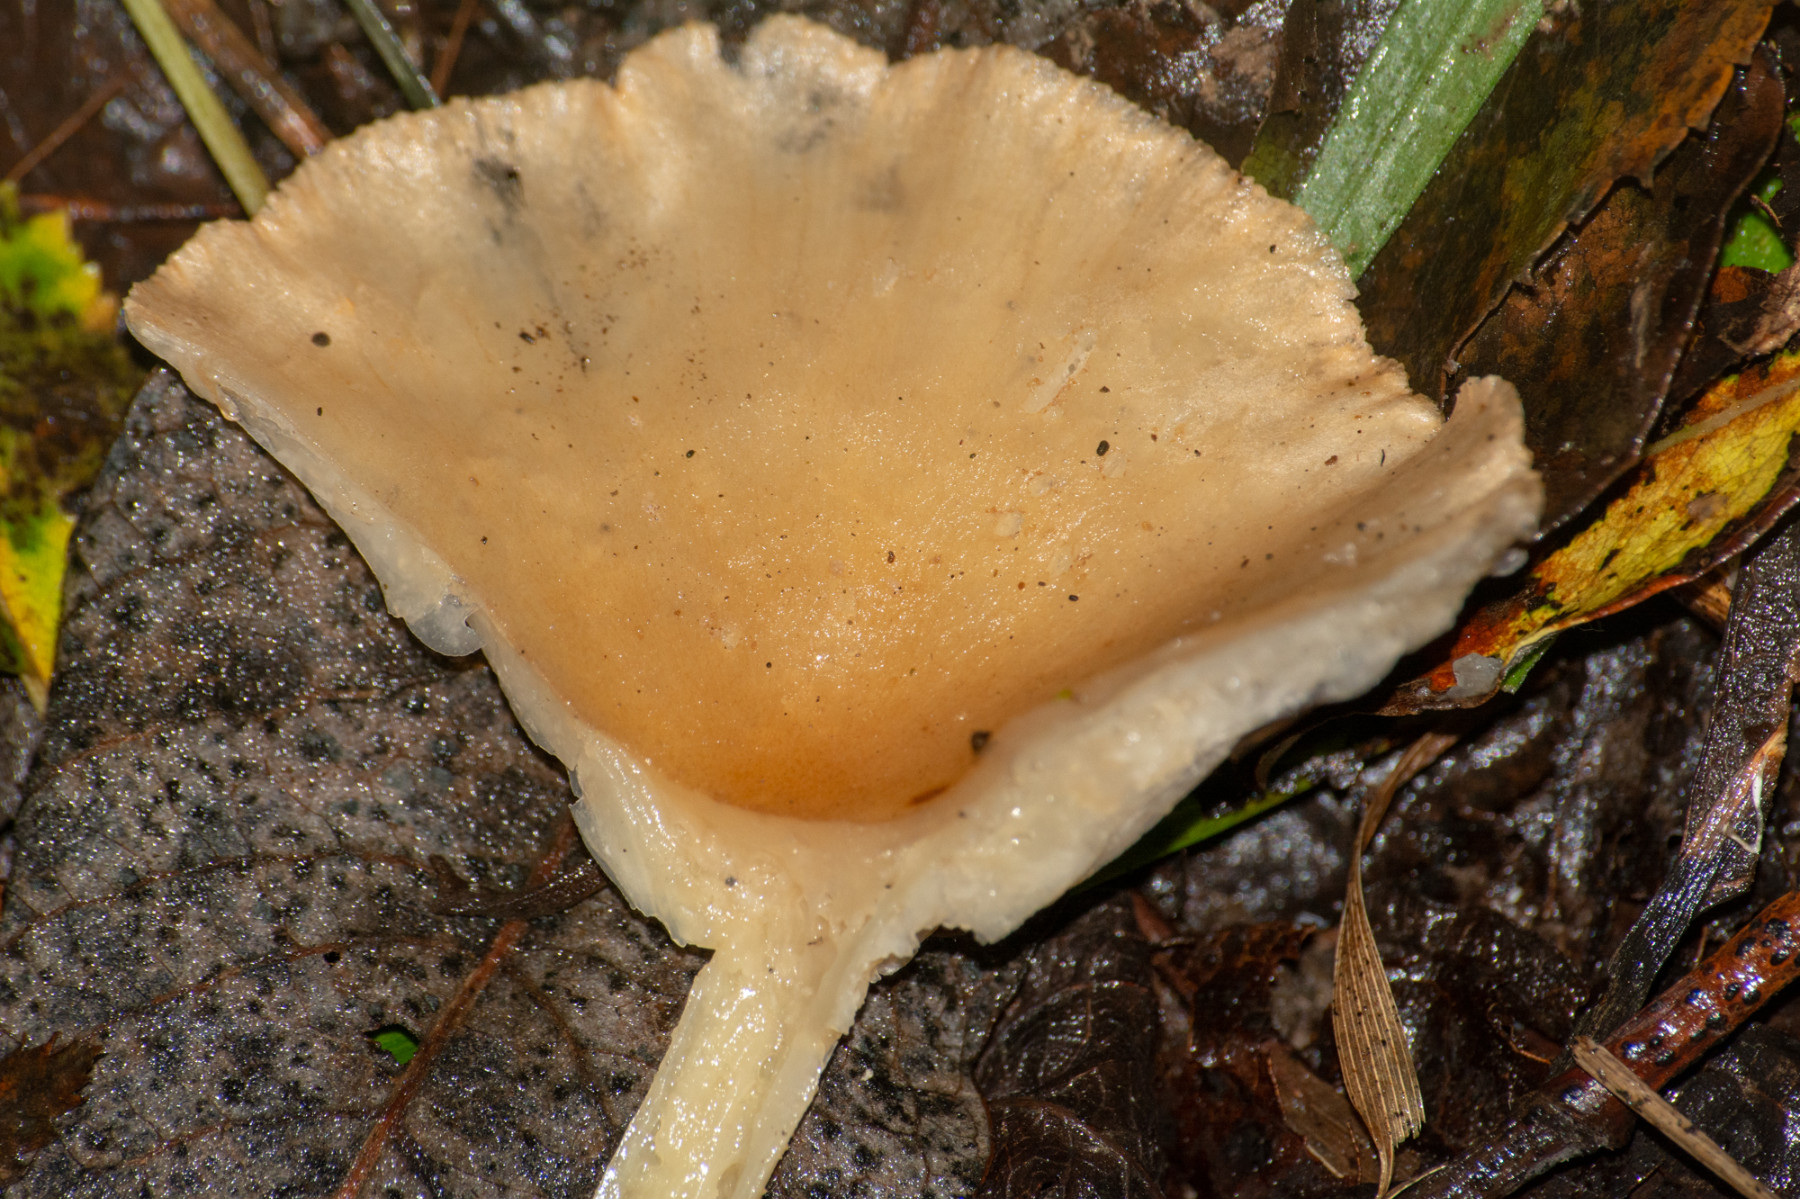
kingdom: Fungi
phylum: Basidiomycota
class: Agaricomycetes
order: Agaricales
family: Tricholomataceae
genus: Infundibulicybe
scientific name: Infundibulicybe
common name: tragthat
